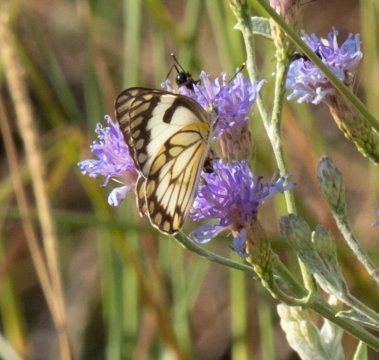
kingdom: Animalia
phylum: Arthropoda
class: Insecta
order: Lepidoptera
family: Pieridae
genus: Belenois
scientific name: Belenois aurota
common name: Pioneer White
